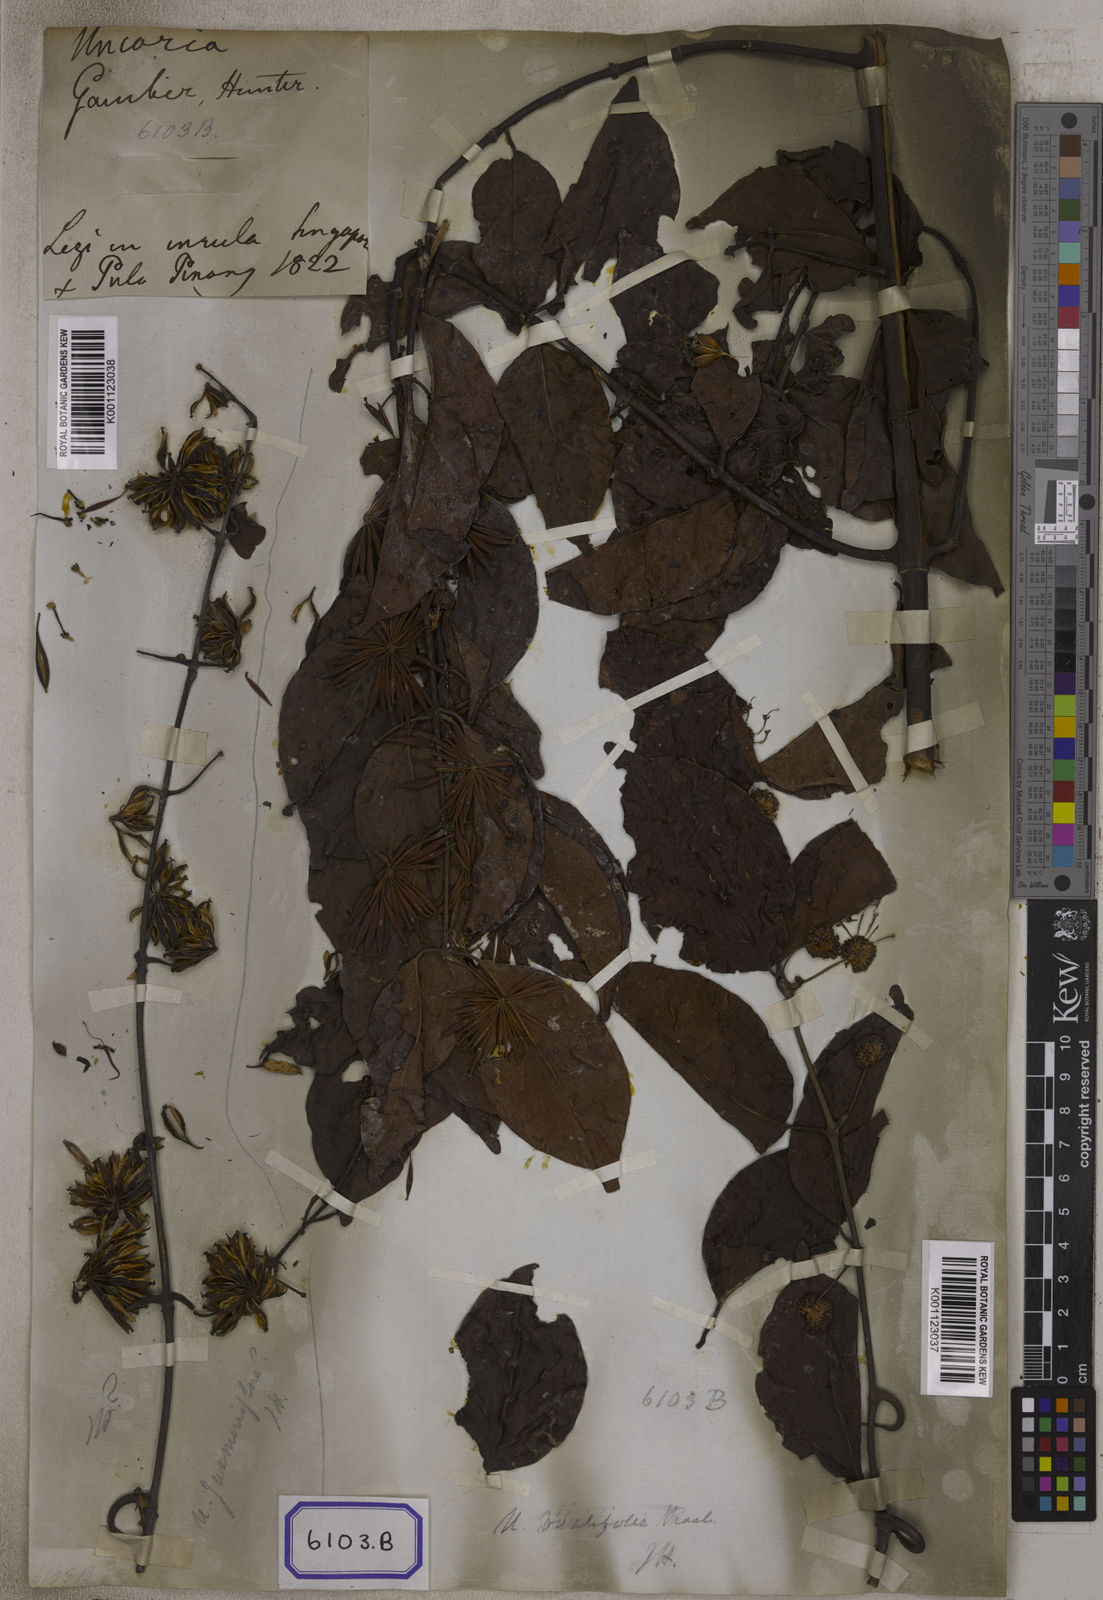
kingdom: Plantae
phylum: Tracheophyta
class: Magnoliopsida
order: Gentianales
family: Rubiaceae
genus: Uncaria
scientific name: Uncaria gambir
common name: Pale catechu
